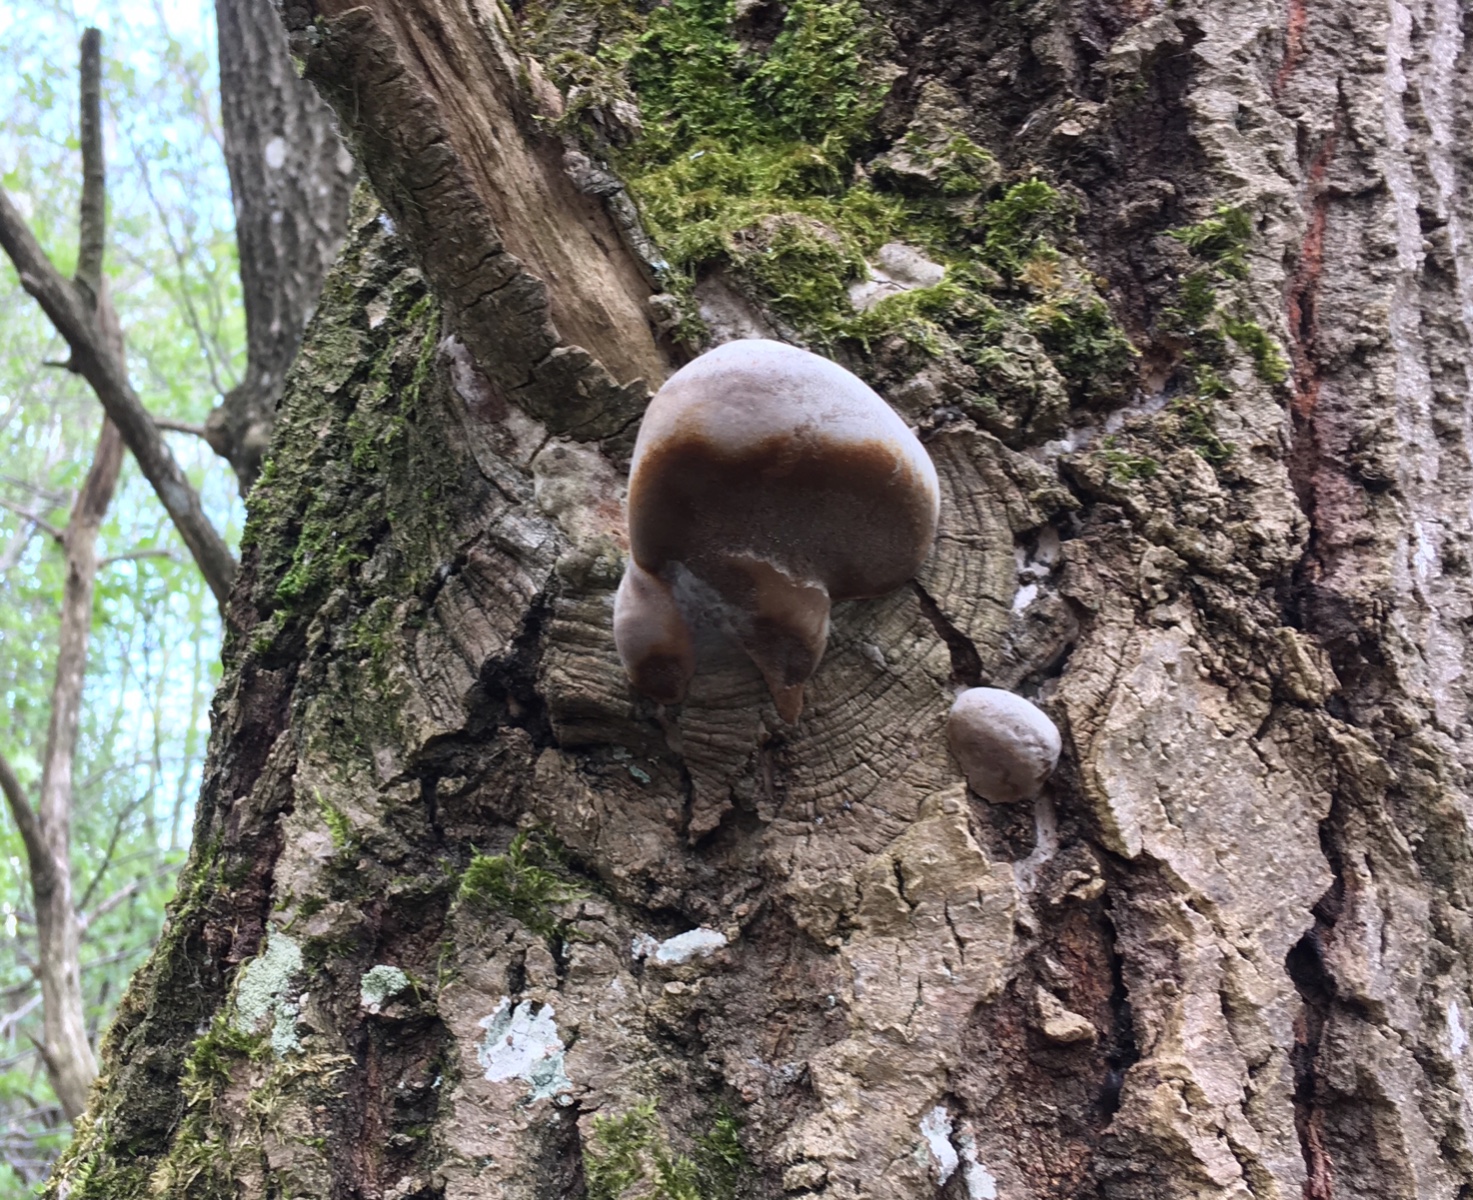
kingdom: Fungi
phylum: Basidiomycota
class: Agaricomycetes
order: Hymenochaetales
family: Hymenochaetaceae
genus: Phellinus
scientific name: Phellinus tremulae
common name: aspe-ildporesvamp
